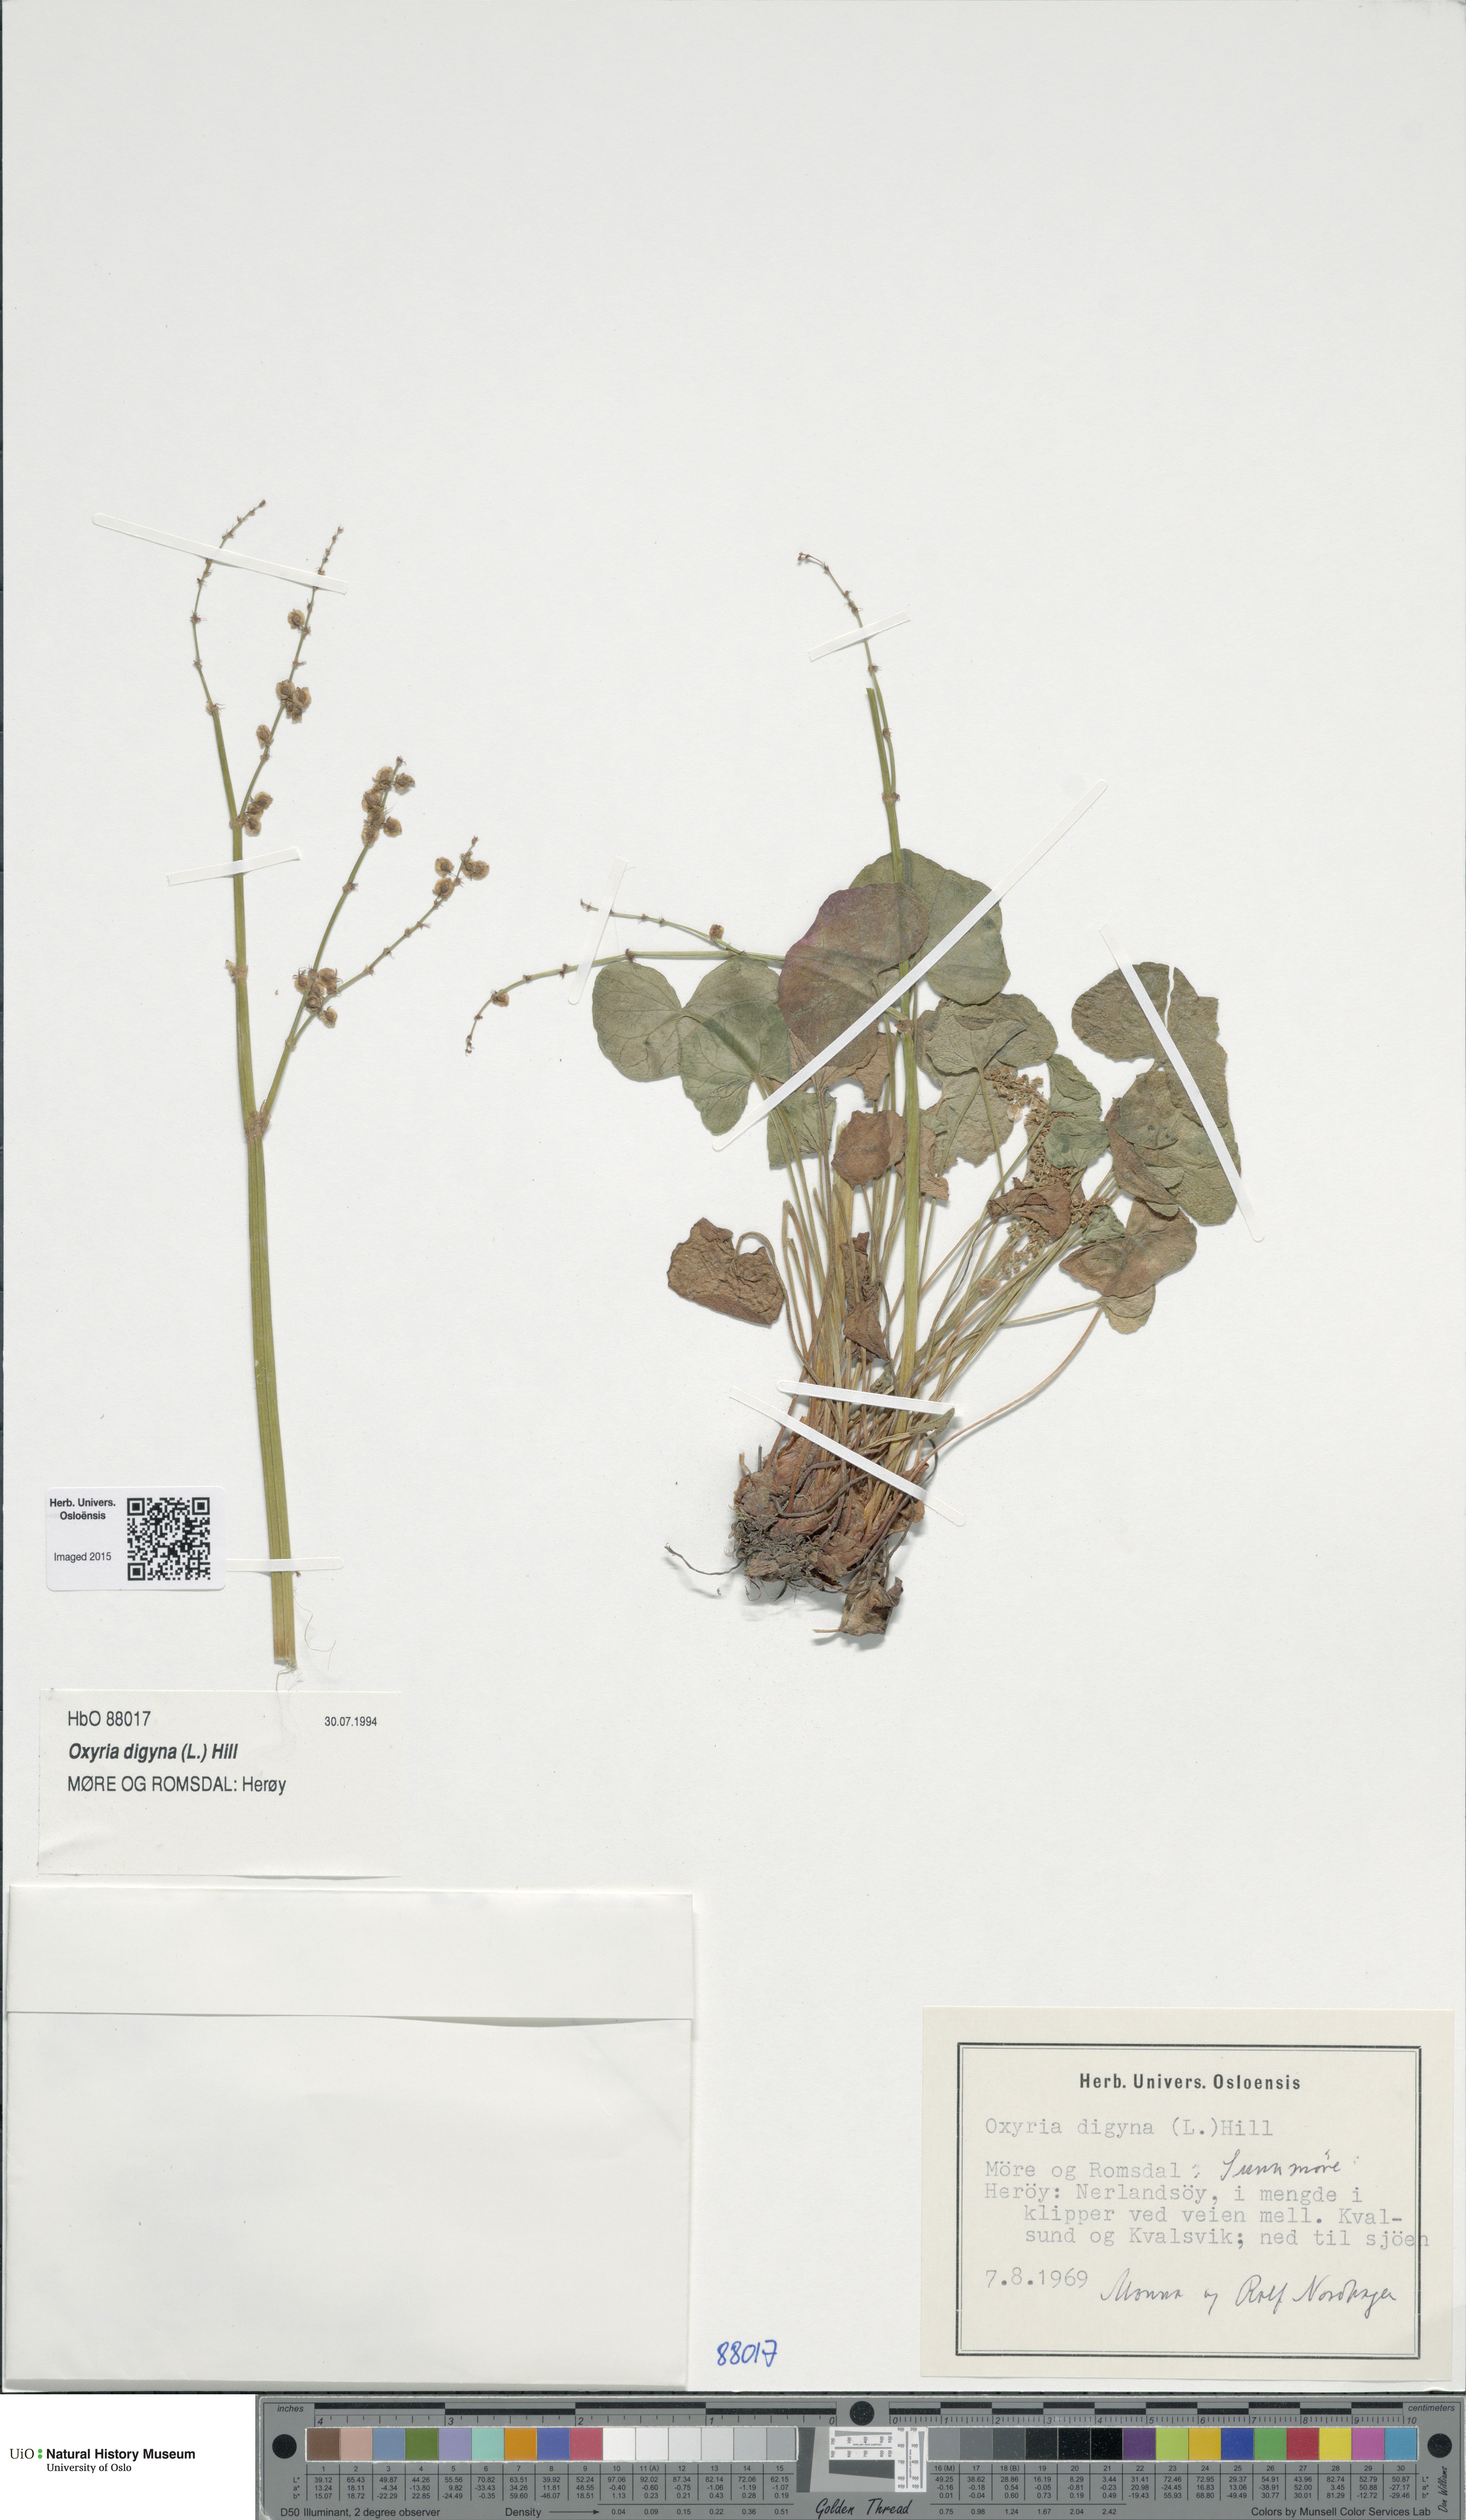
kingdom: Plantae
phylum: Tracheophyta
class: Magnoliopsida
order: Caryophyllales
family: Polygonaceae
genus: Oxyria
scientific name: Oxyria digyna
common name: Alpine mountain-sorrel
